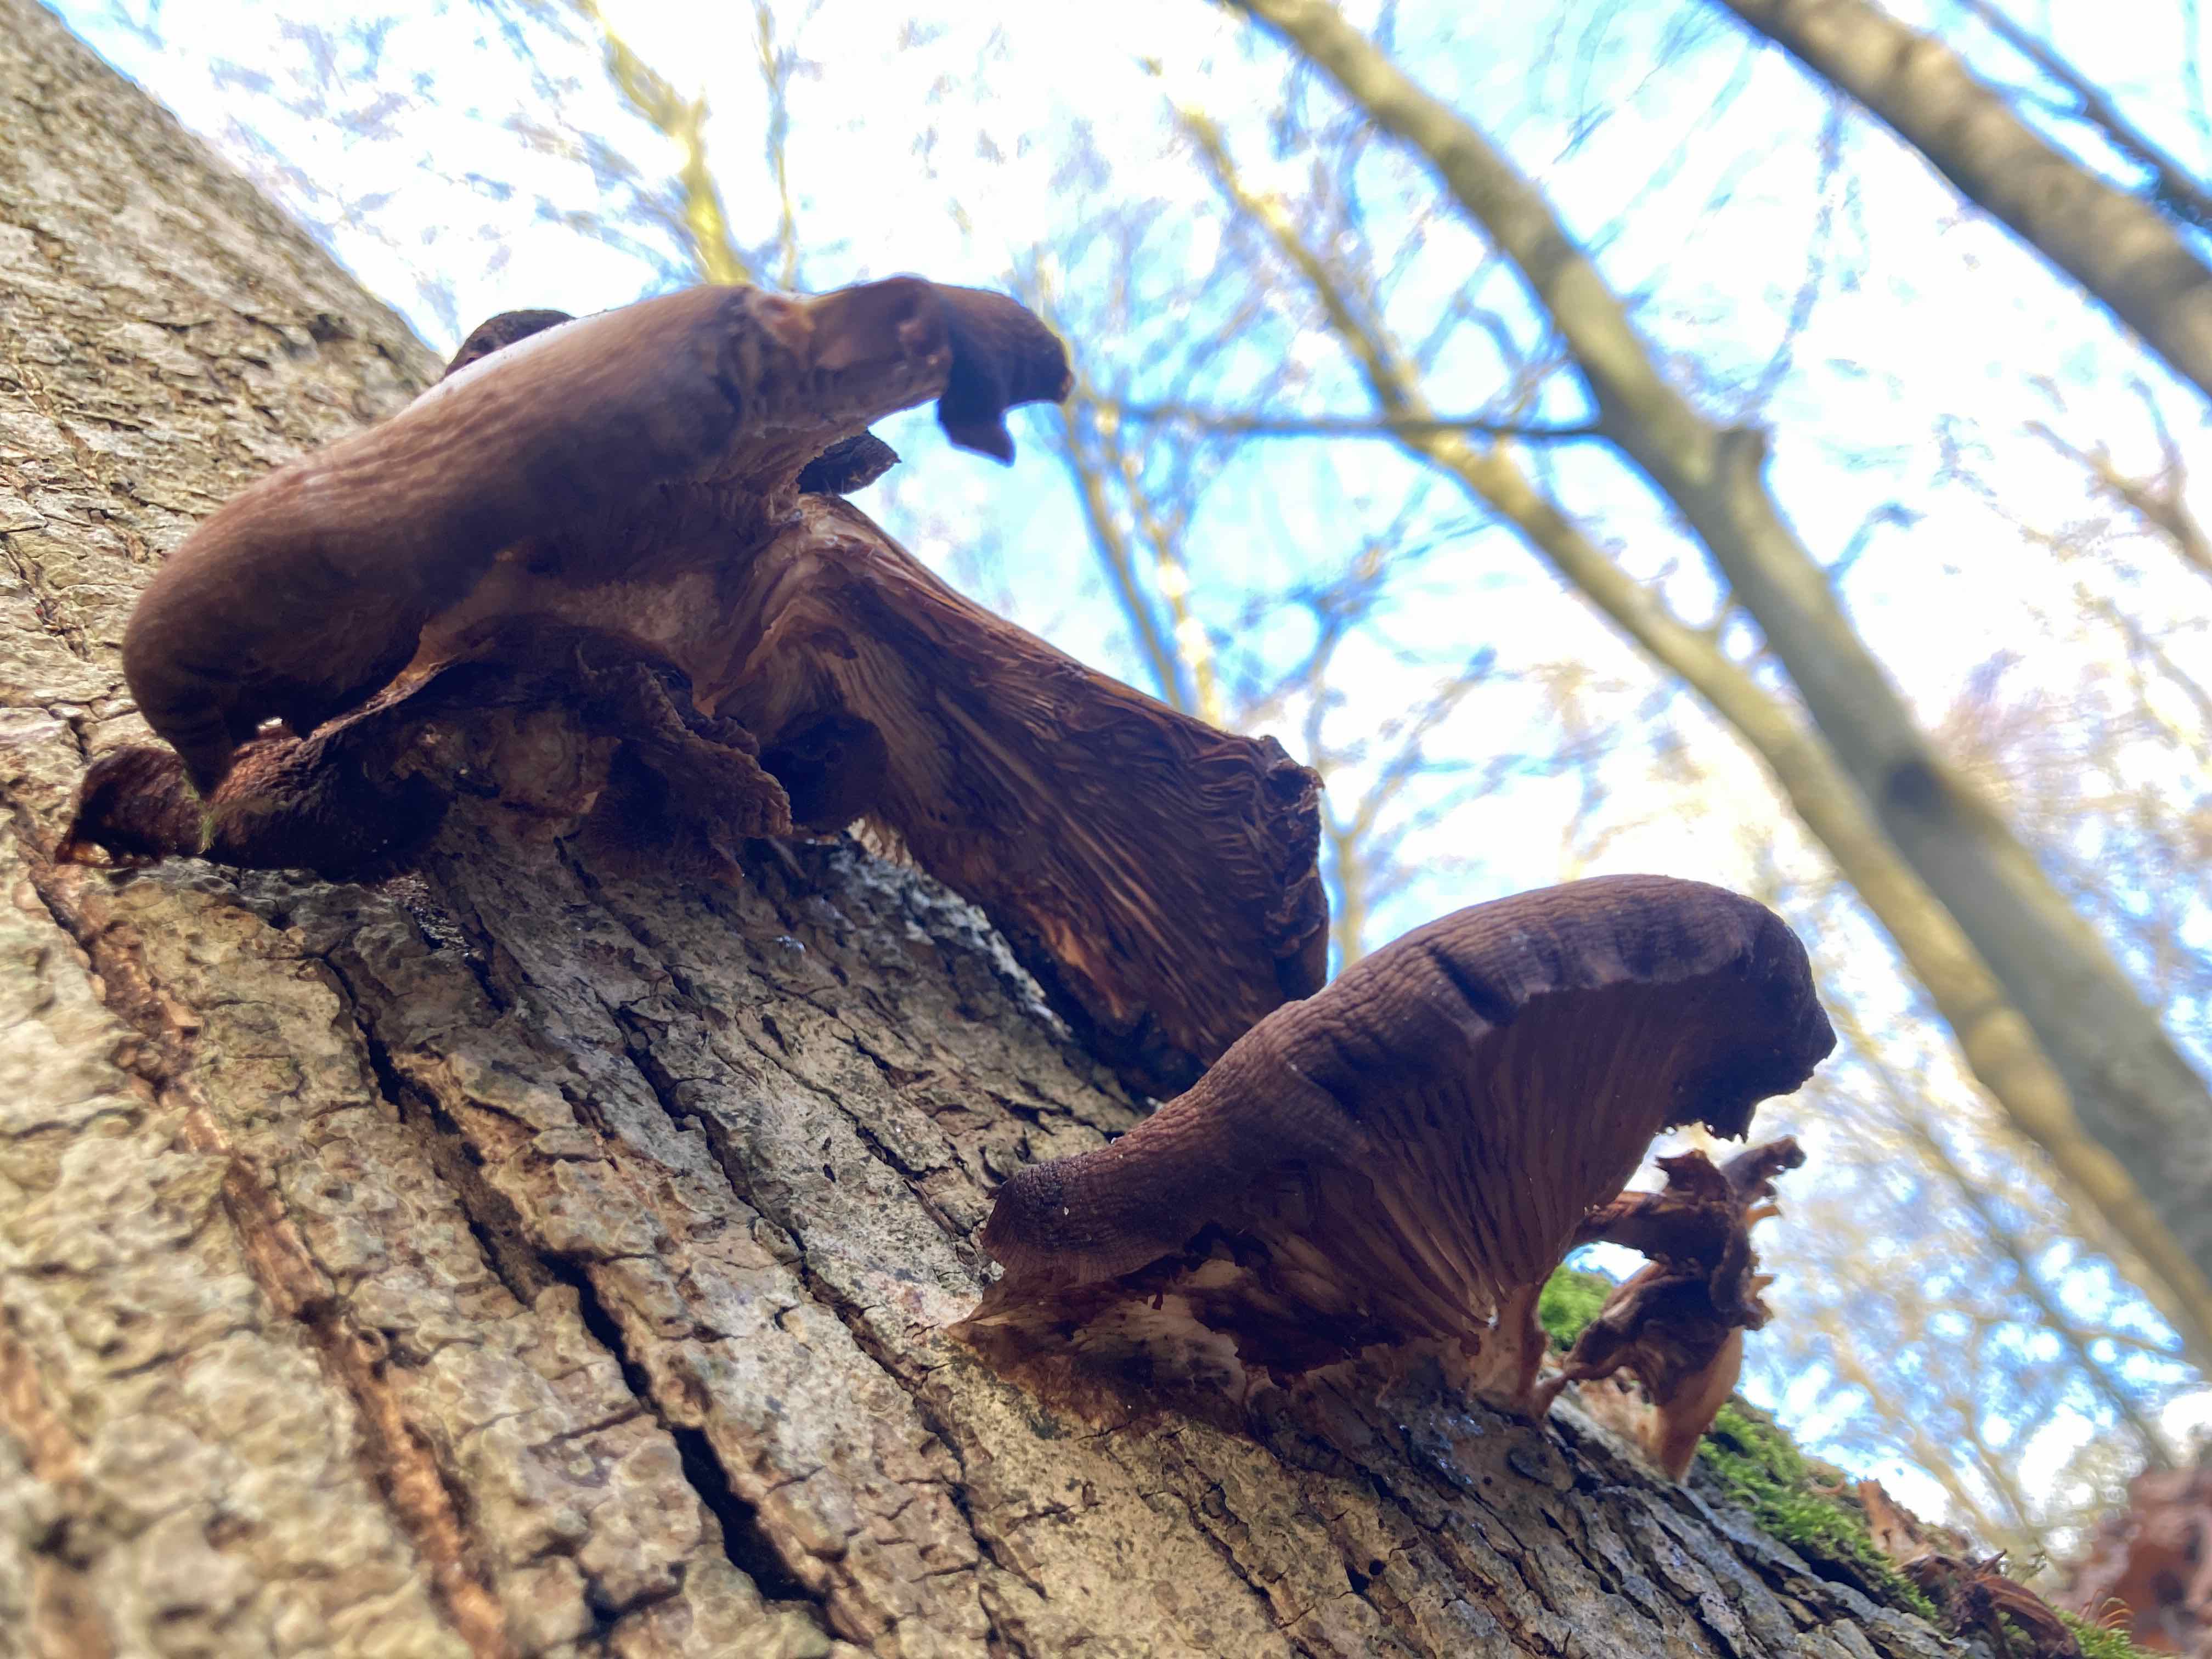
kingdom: Fungi
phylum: Basidiomycota
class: Agaricomycetes
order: Agaricales
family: Pleurotaceae
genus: Pleurotus
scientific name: Pleurotus ostreatus
